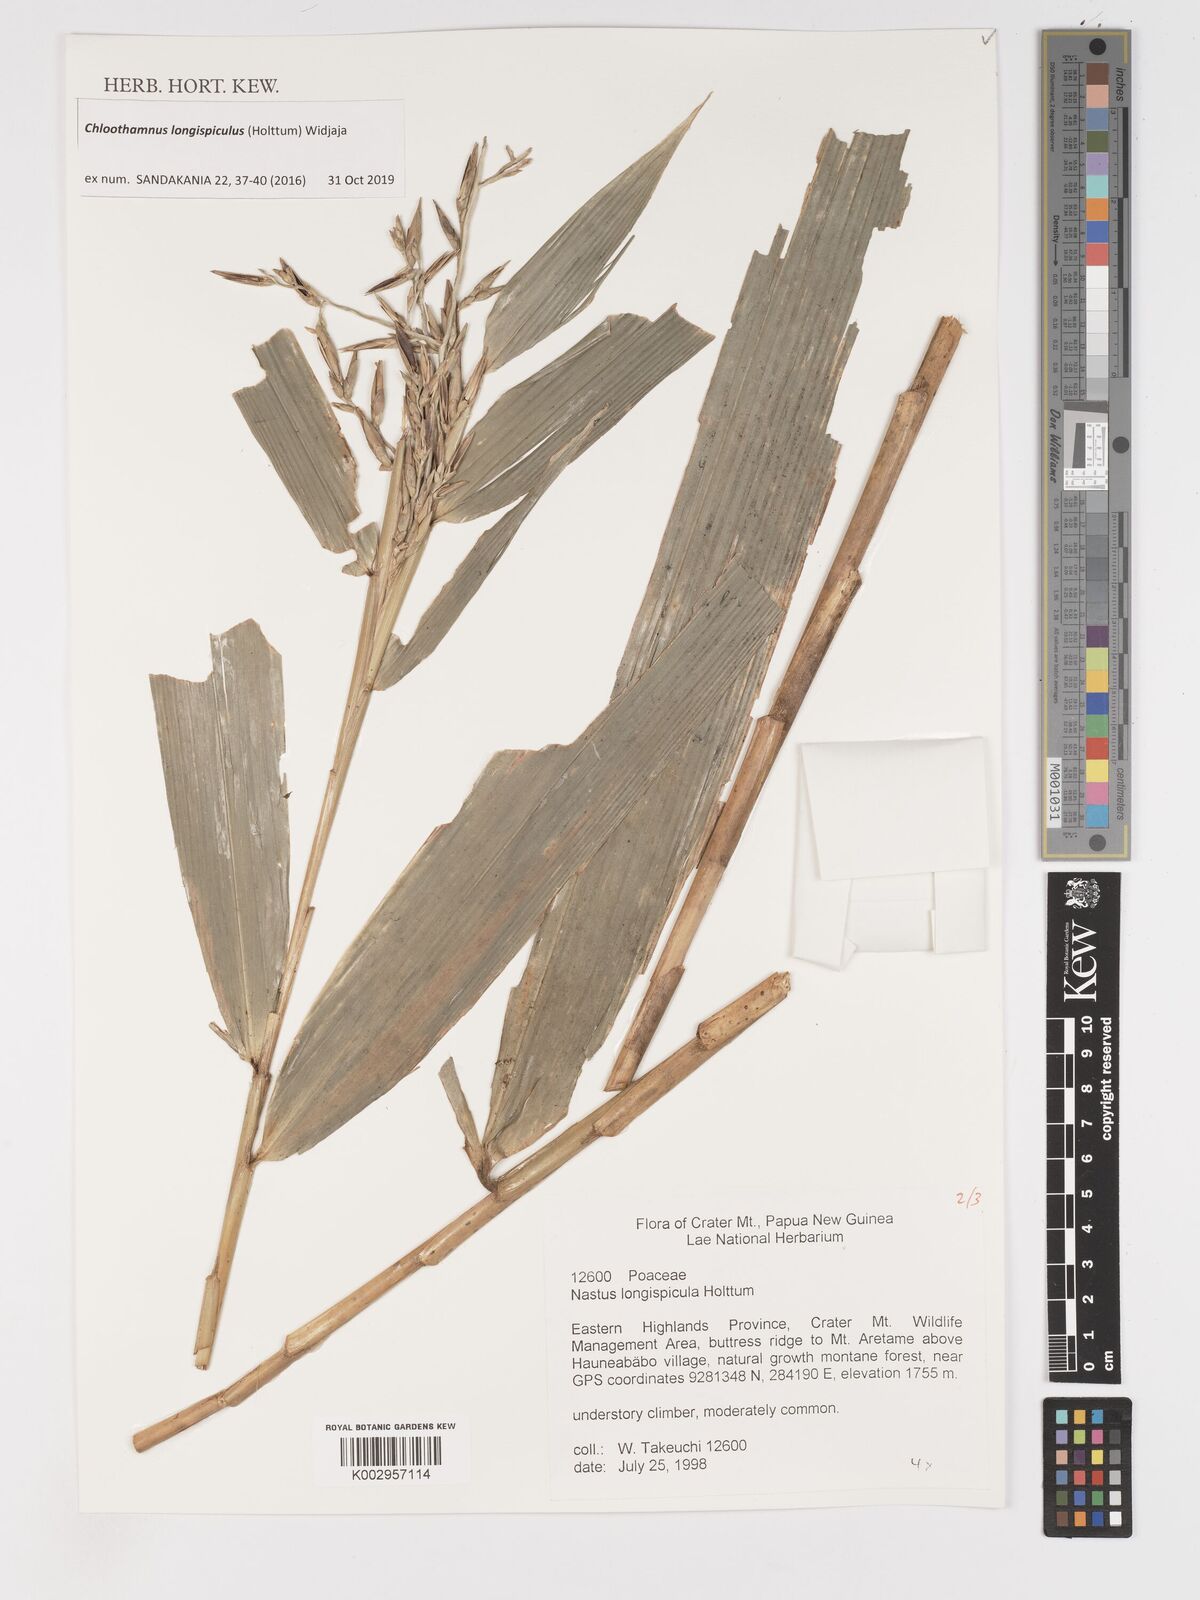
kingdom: Plantae
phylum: Tracheophyta
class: Liliopsida
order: Poales
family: Poaceae
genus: Chloothamnus
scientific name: Chloothamnus longispiculus
